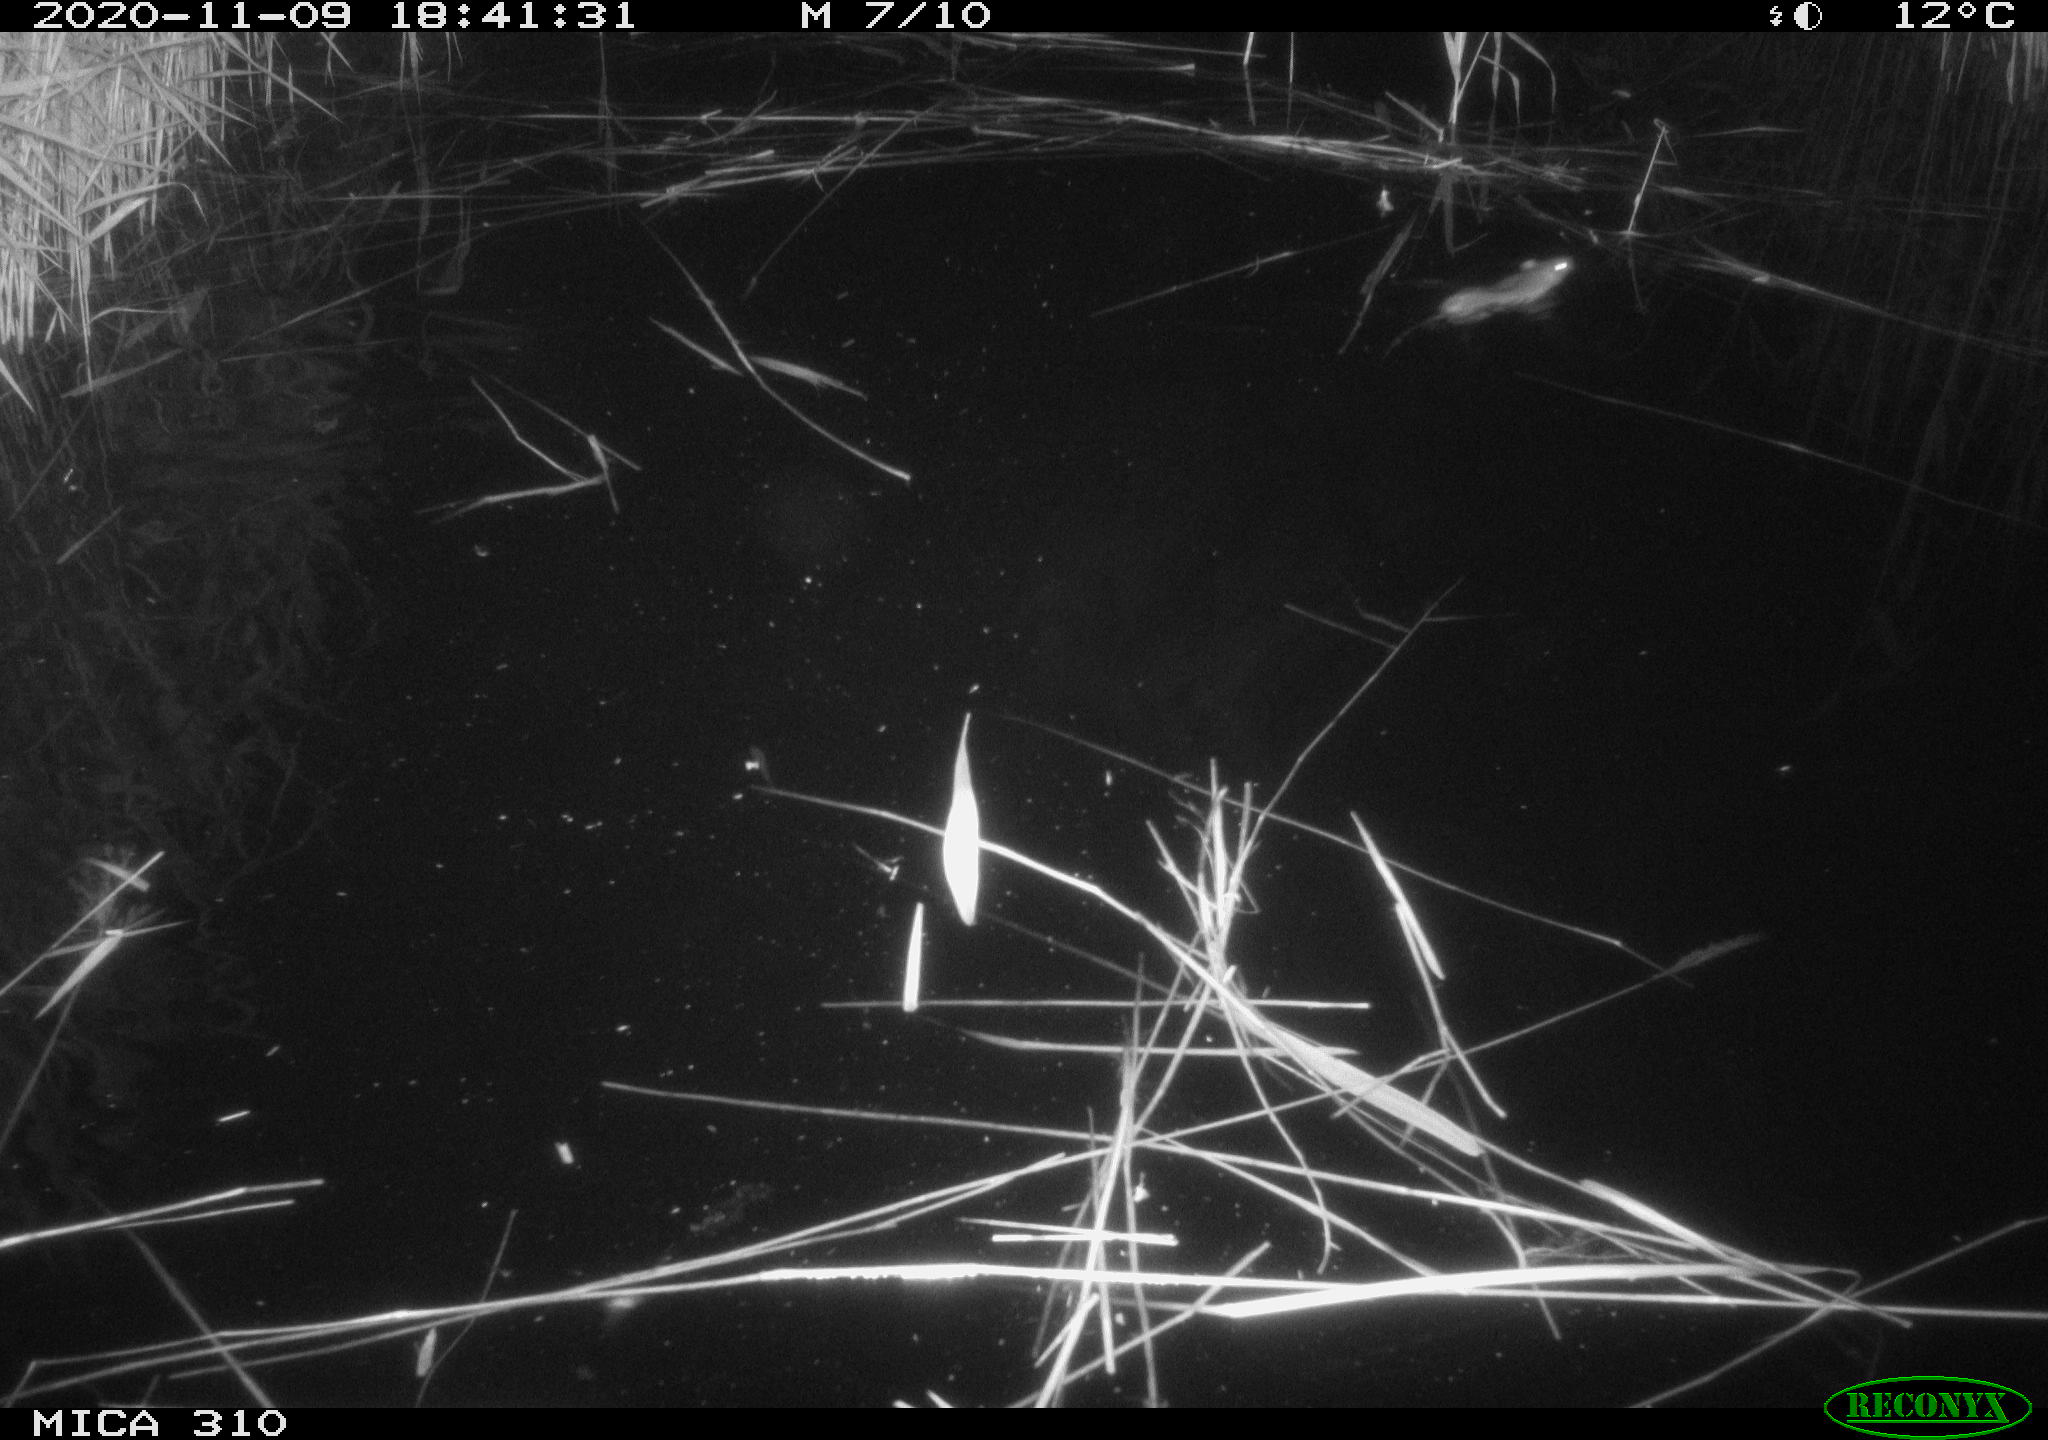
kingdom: Animalia
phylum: Chordata
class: Mammalia
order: Rodentia
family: Muridae
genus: Rattus
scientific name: Rattus norvegicus
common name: Brown rat
